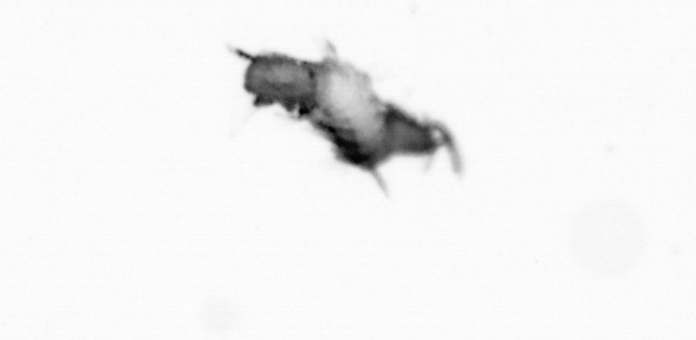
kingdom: Animalia
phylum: Annelida
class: Polychaeta
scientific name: Polychaeta
